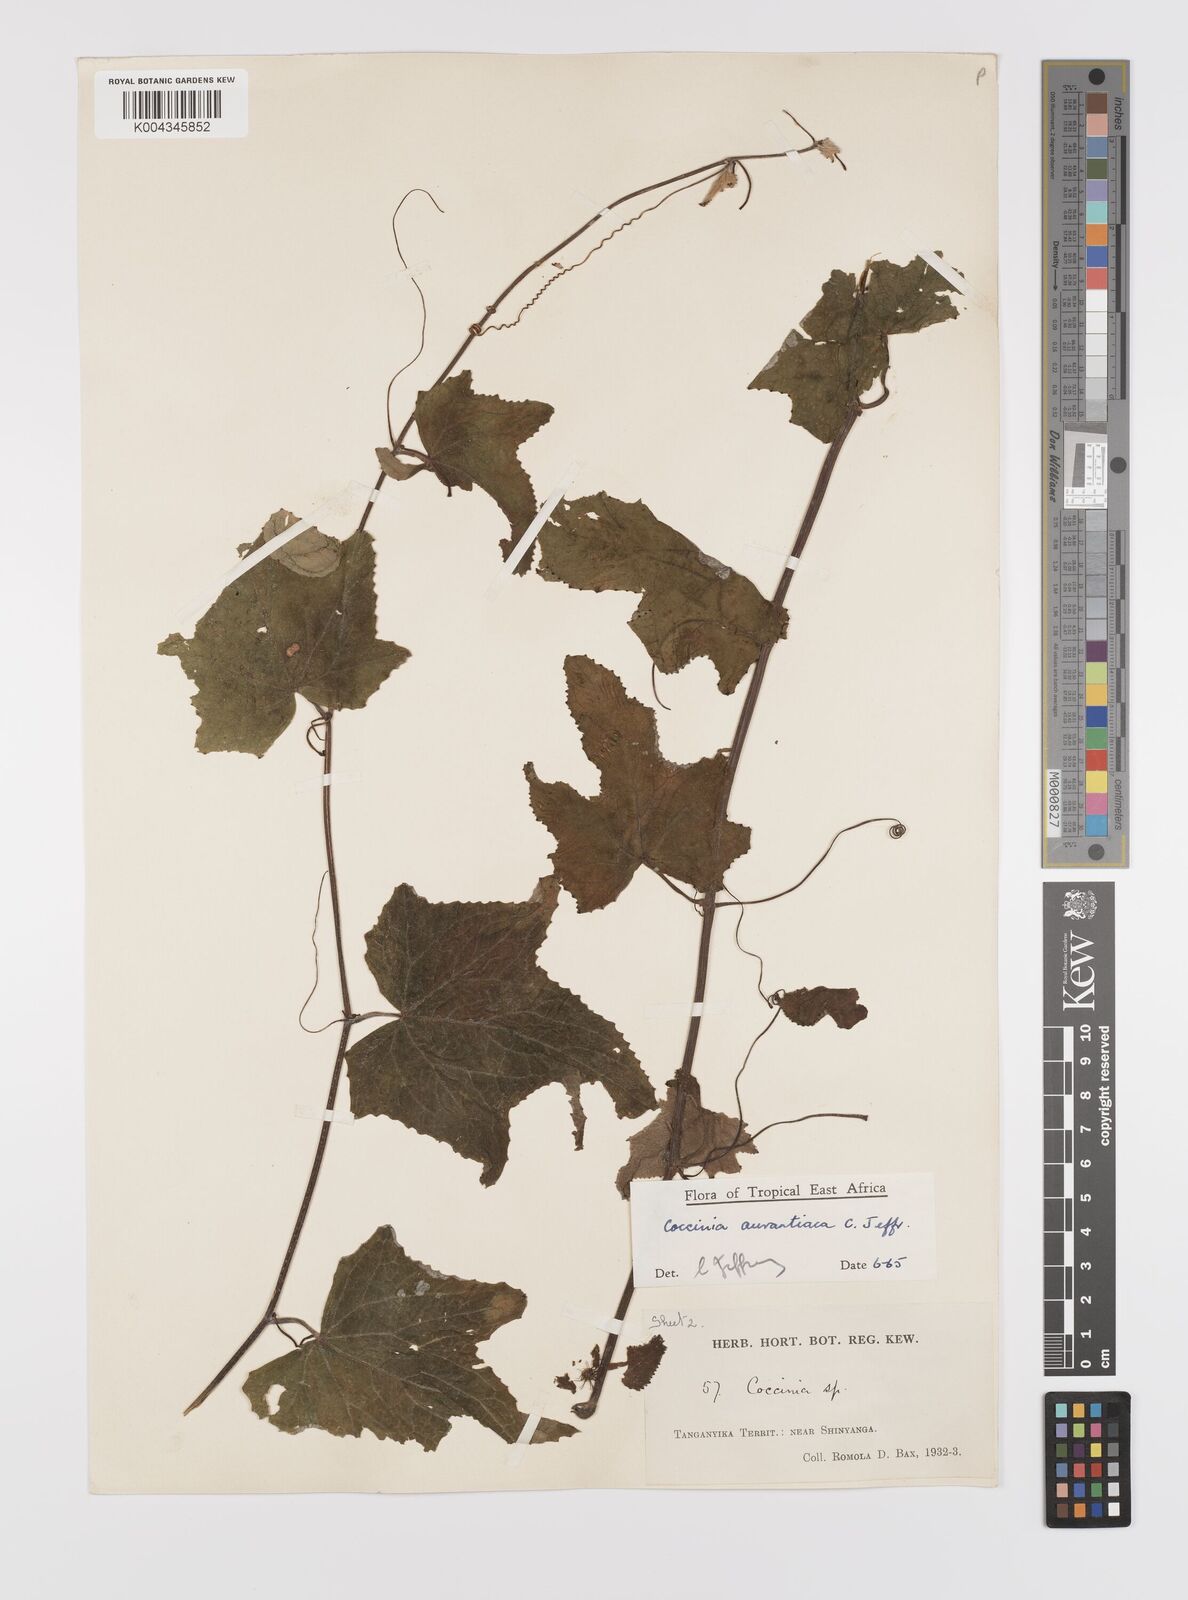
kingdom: Plantae
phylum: Tracheophyta
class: Magnoliopsida
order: Cucurbitales
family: Cucurbitaceae
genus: Coccinia
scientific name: Coccinia adoensis
